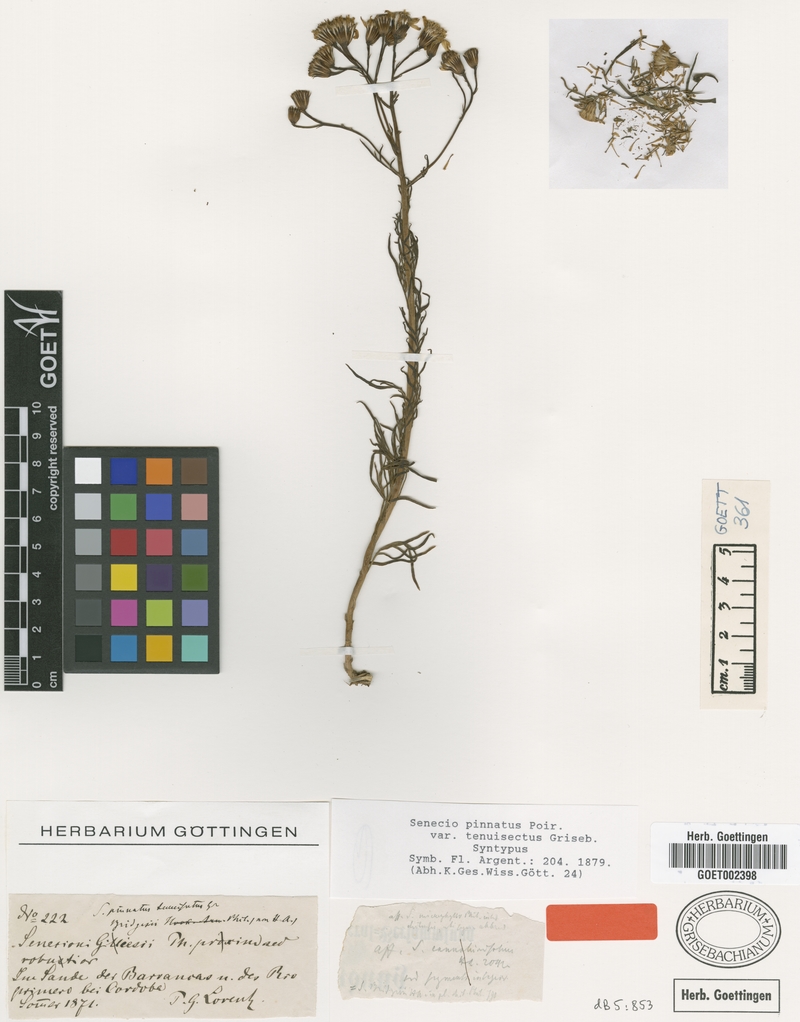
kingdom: Plantae
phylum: Tracheophyta
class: Magnoliopsida
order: Asterales
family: Asteraceae
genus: Senecio
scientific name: Senecio pinnatus
